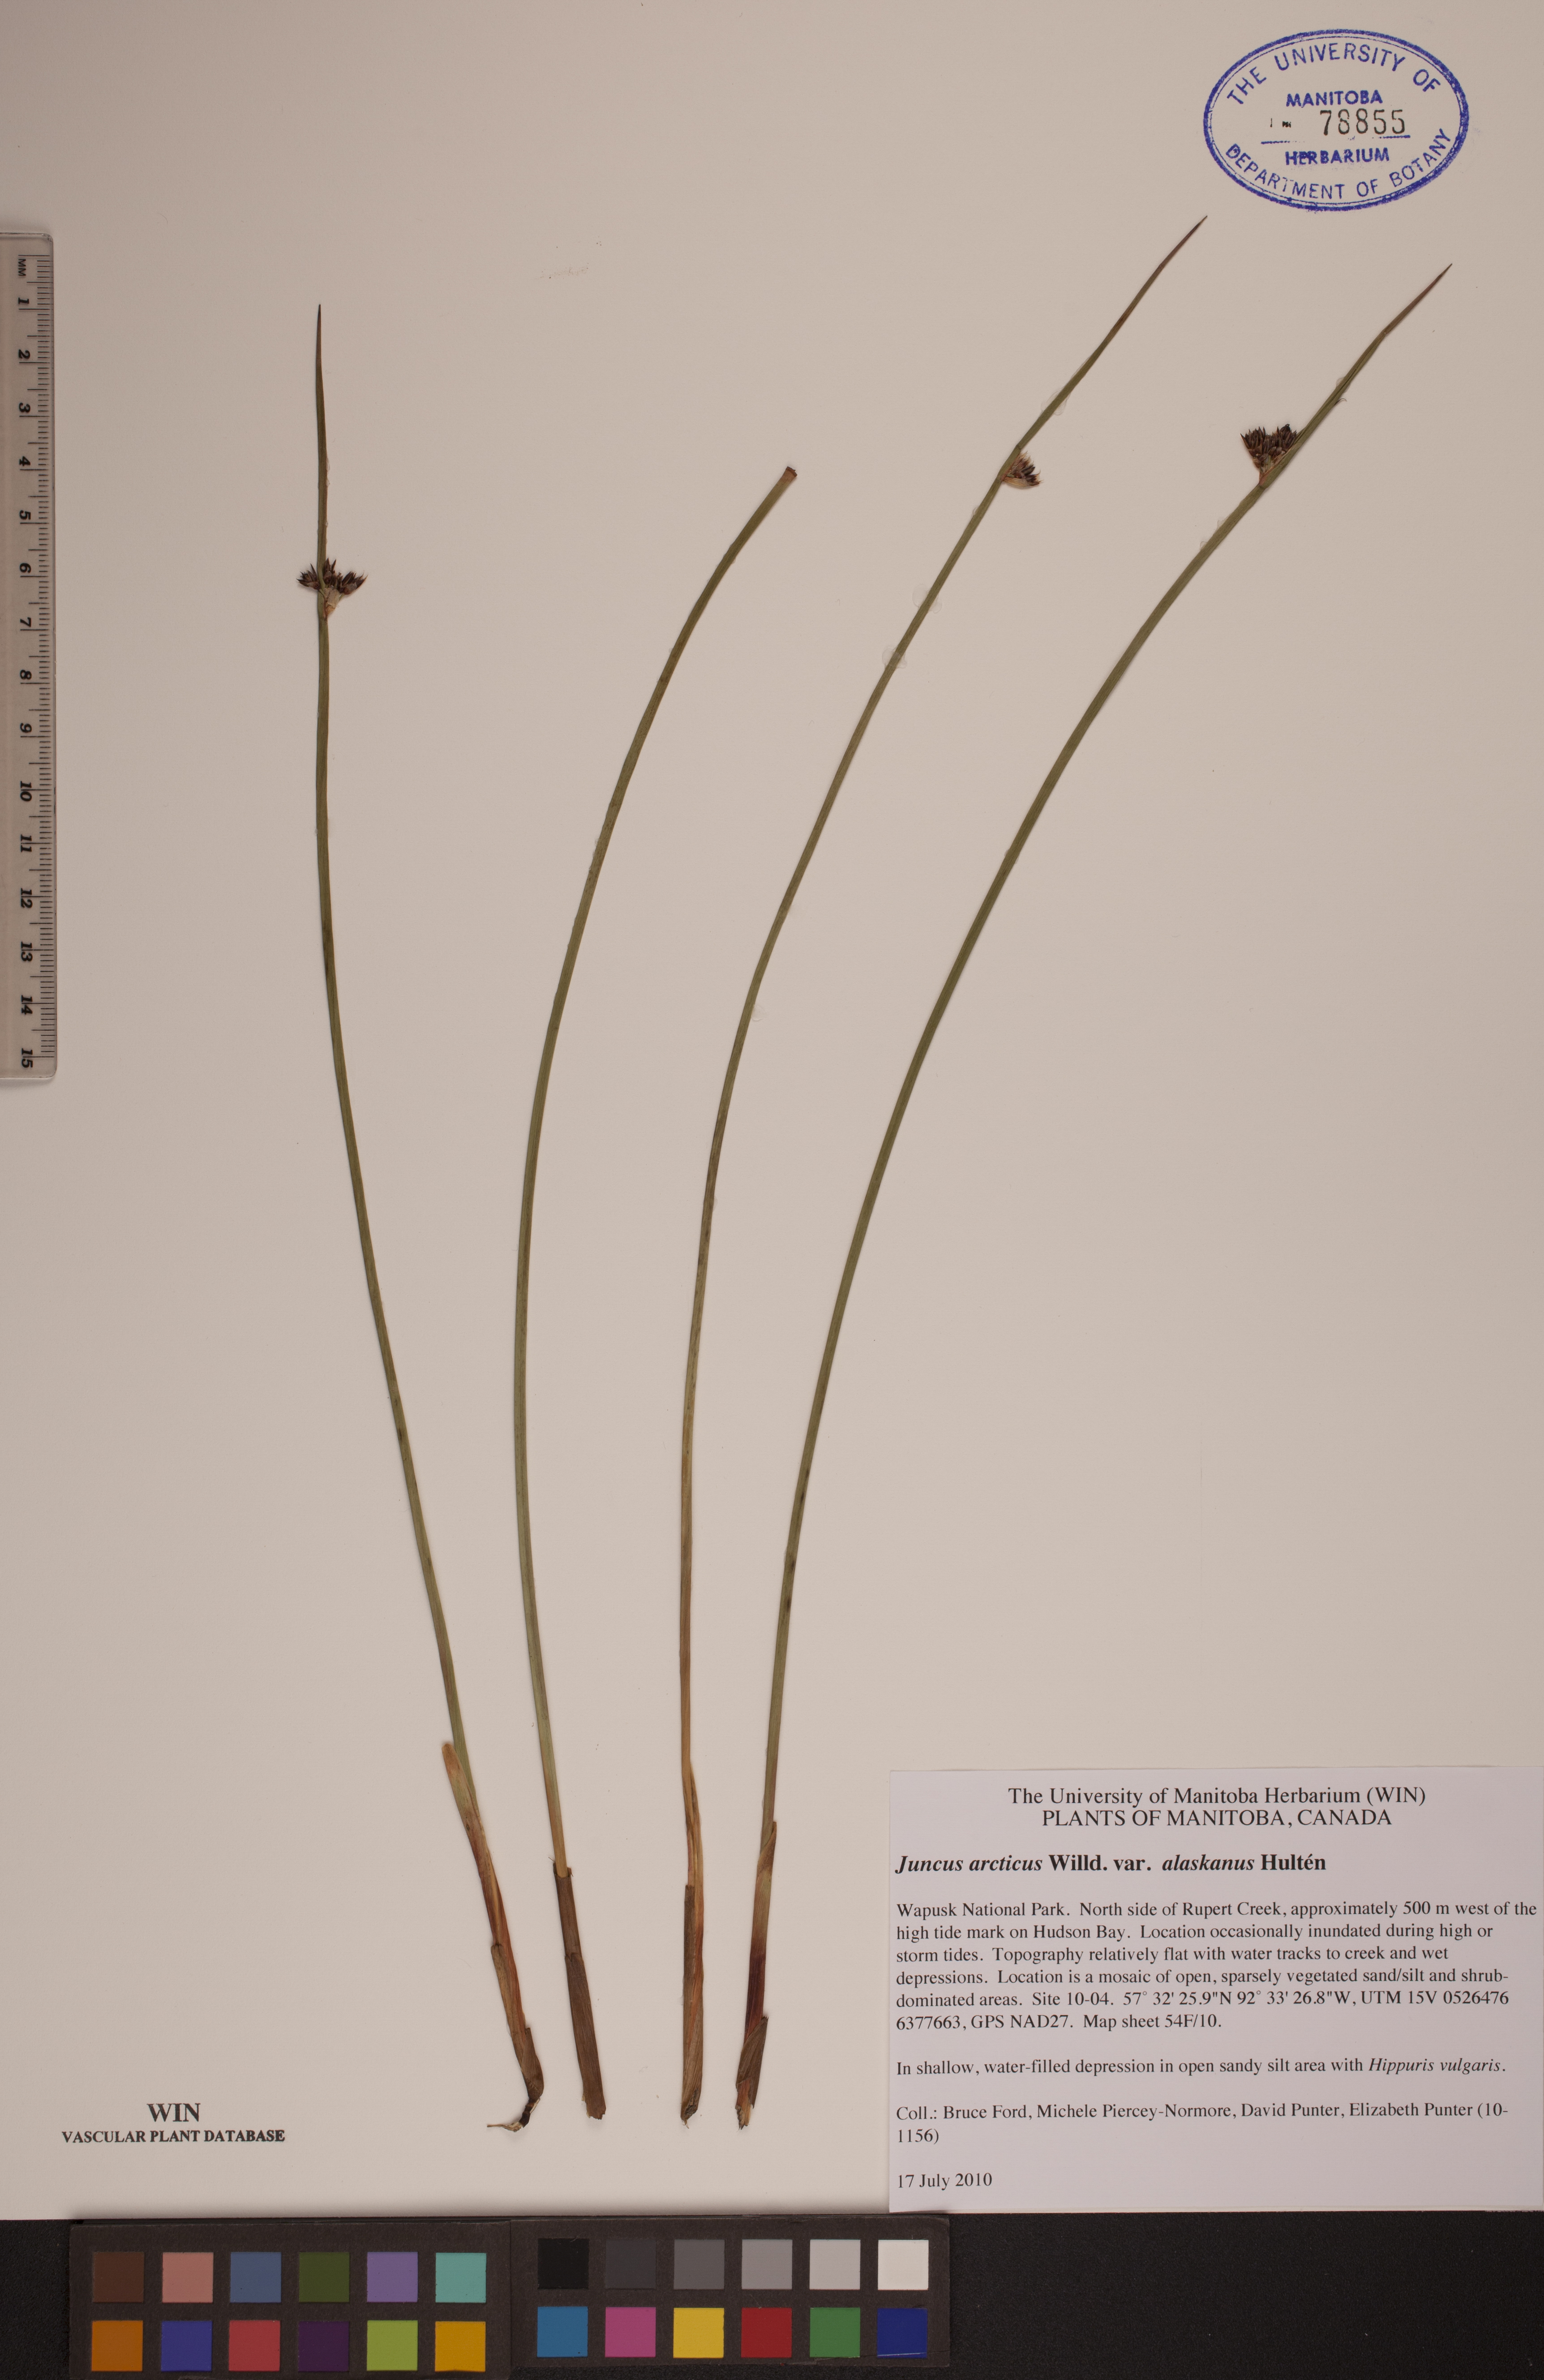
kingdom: Plantae
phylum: Tracheophyta
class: Liliopsida
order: Poales
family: Juncaceae
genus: Juncus
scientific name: Juncus arcticus
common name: Arctic rush
